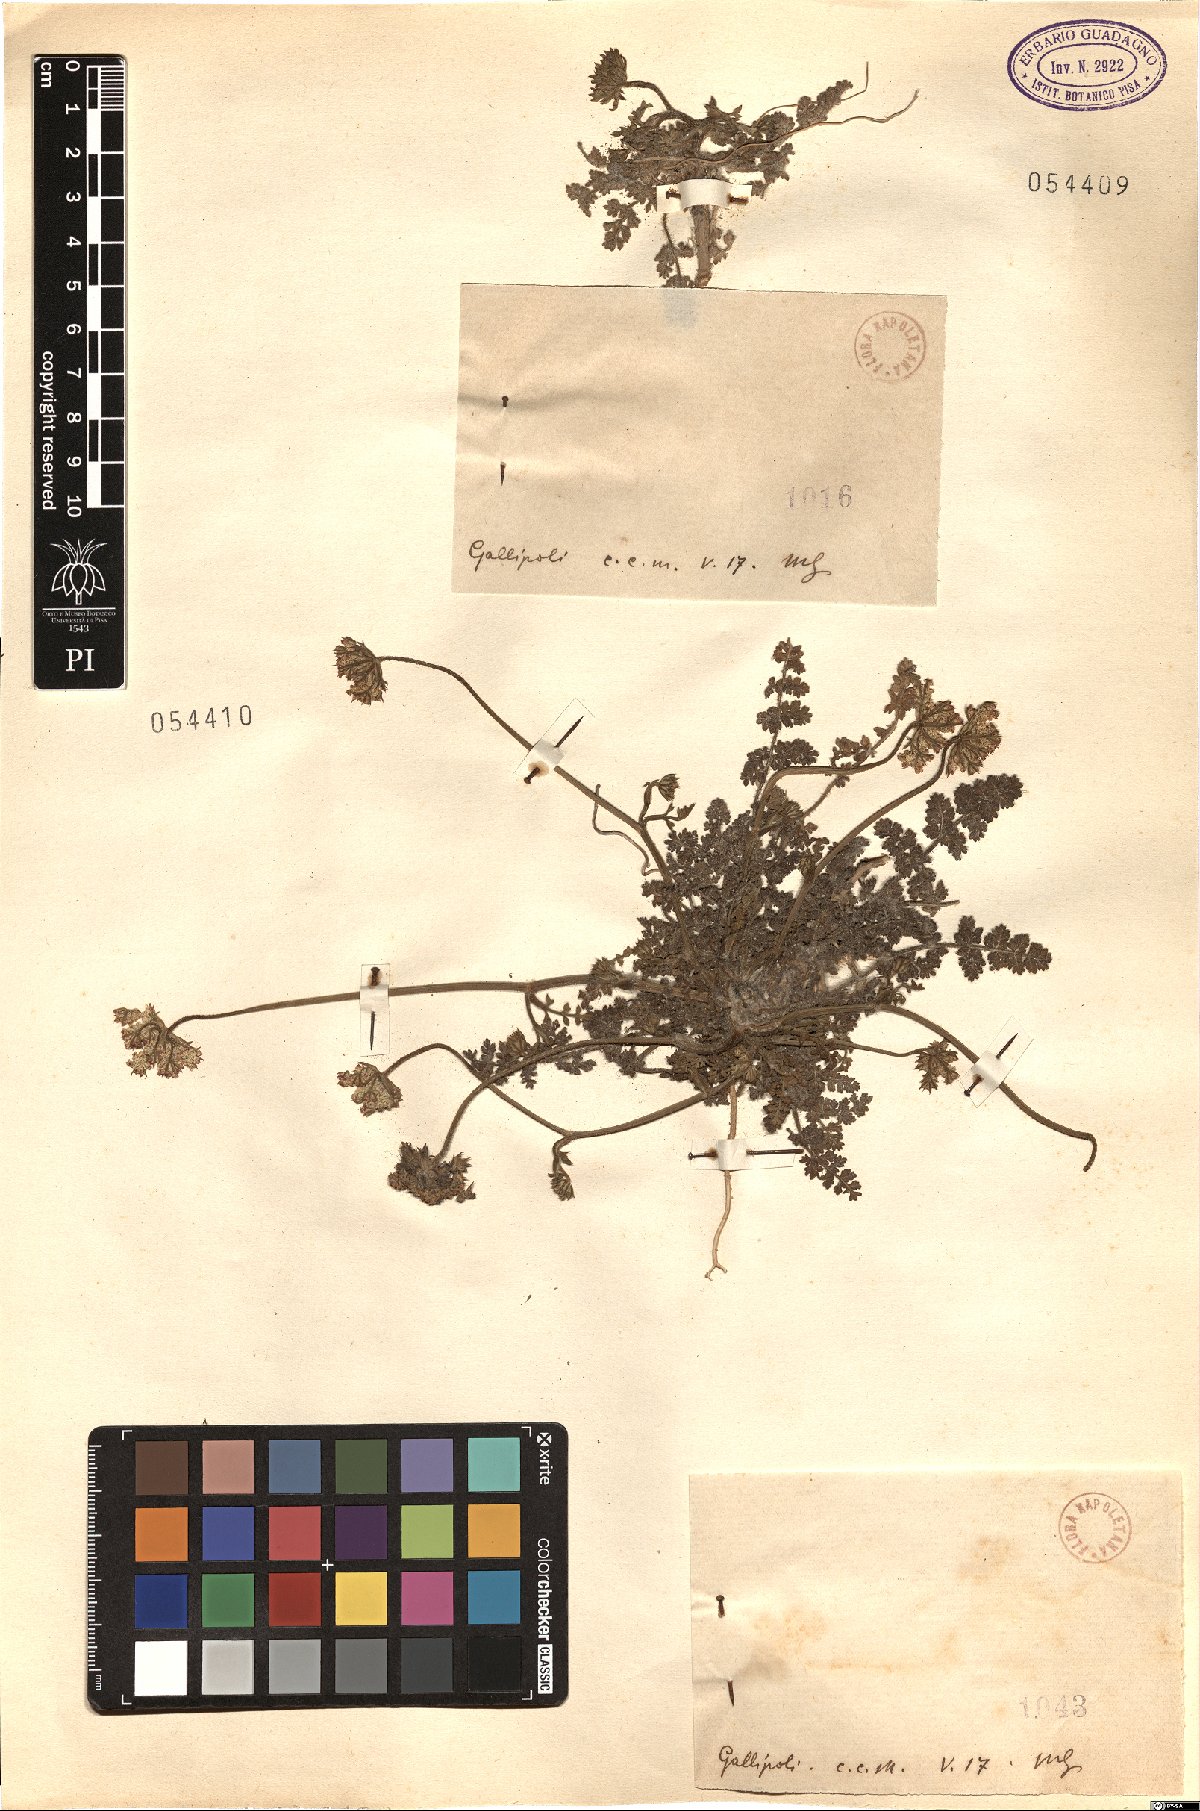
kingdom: Plantae
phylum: Tracheophyta
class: Magnoliopsida
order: Apiales
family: Apiaceae
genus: Daucus
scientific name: Daucus
